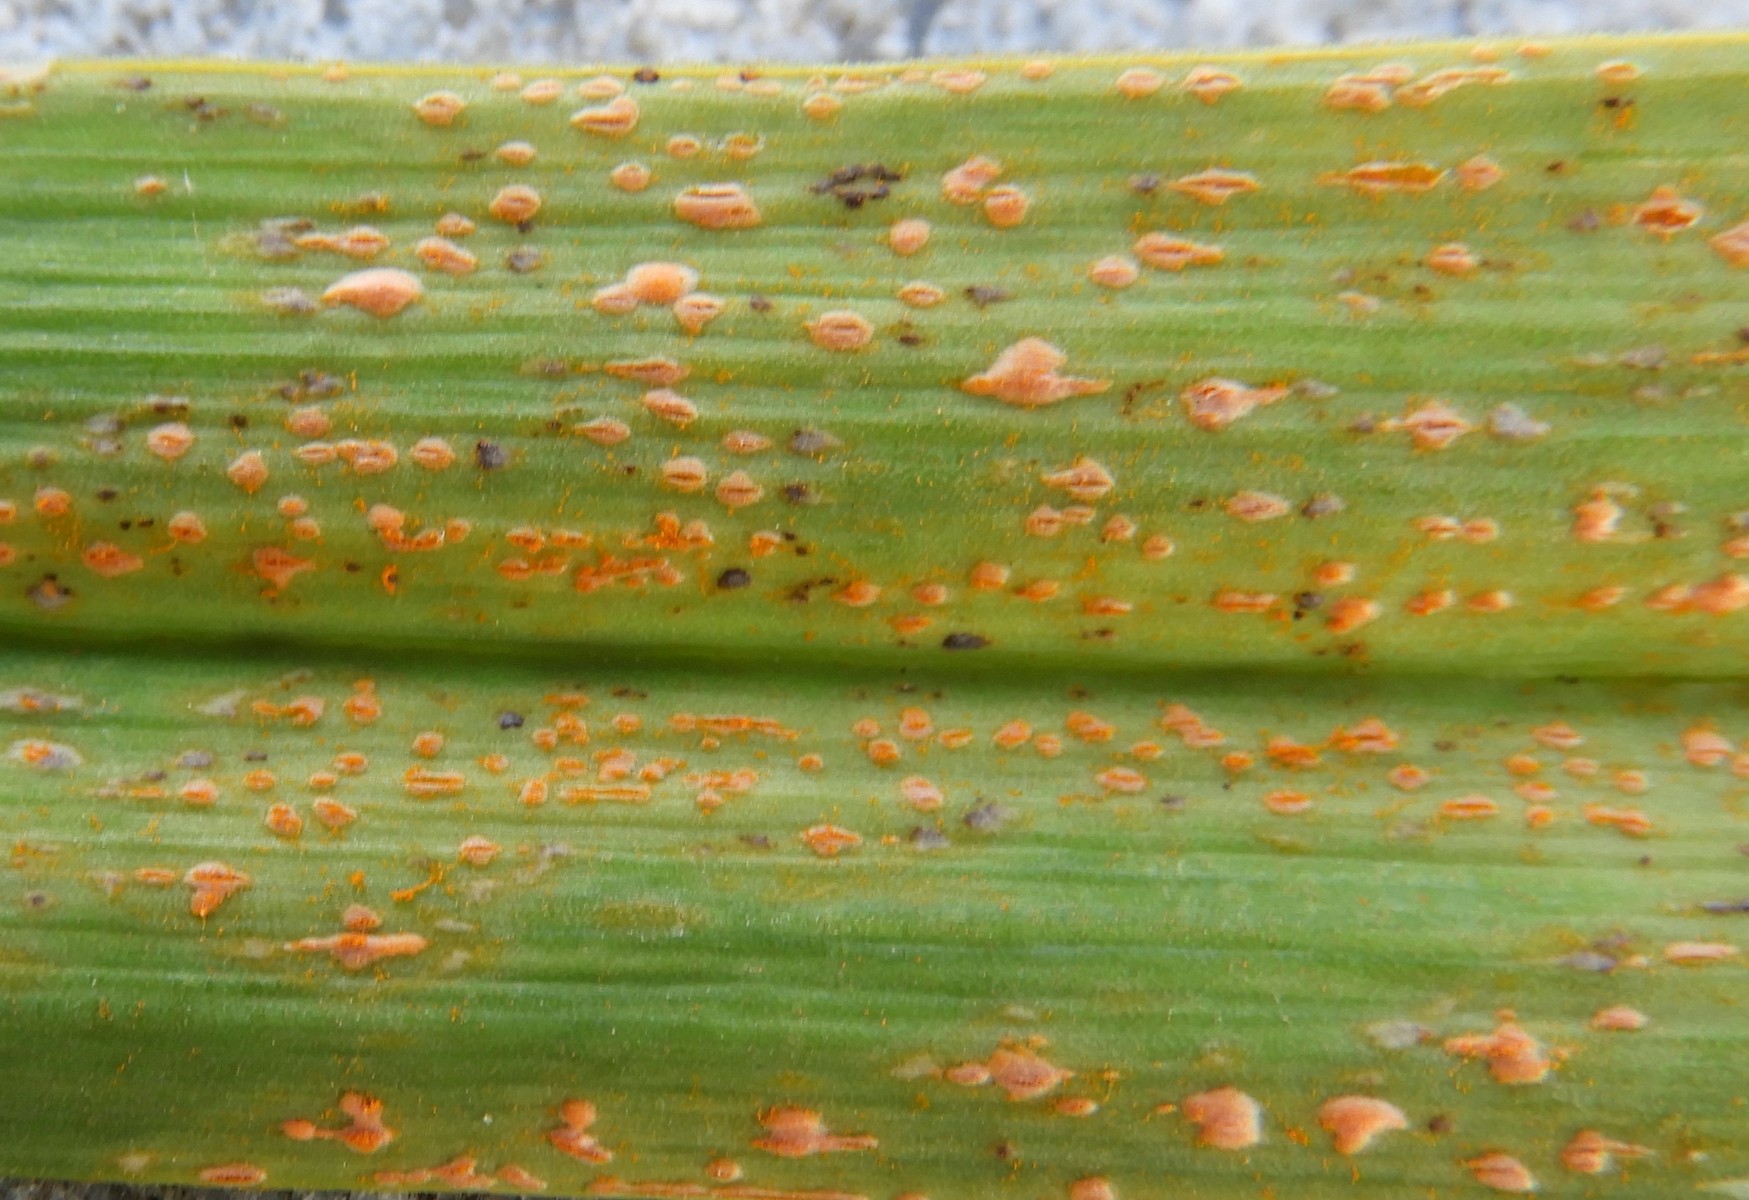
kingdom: Fungi
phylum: Basidiomycota
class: Pucciniomycetes
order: Pucciniales
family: Pucciniaceae
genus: Puccinia
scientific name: Puccinia porri
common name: Allium rust
